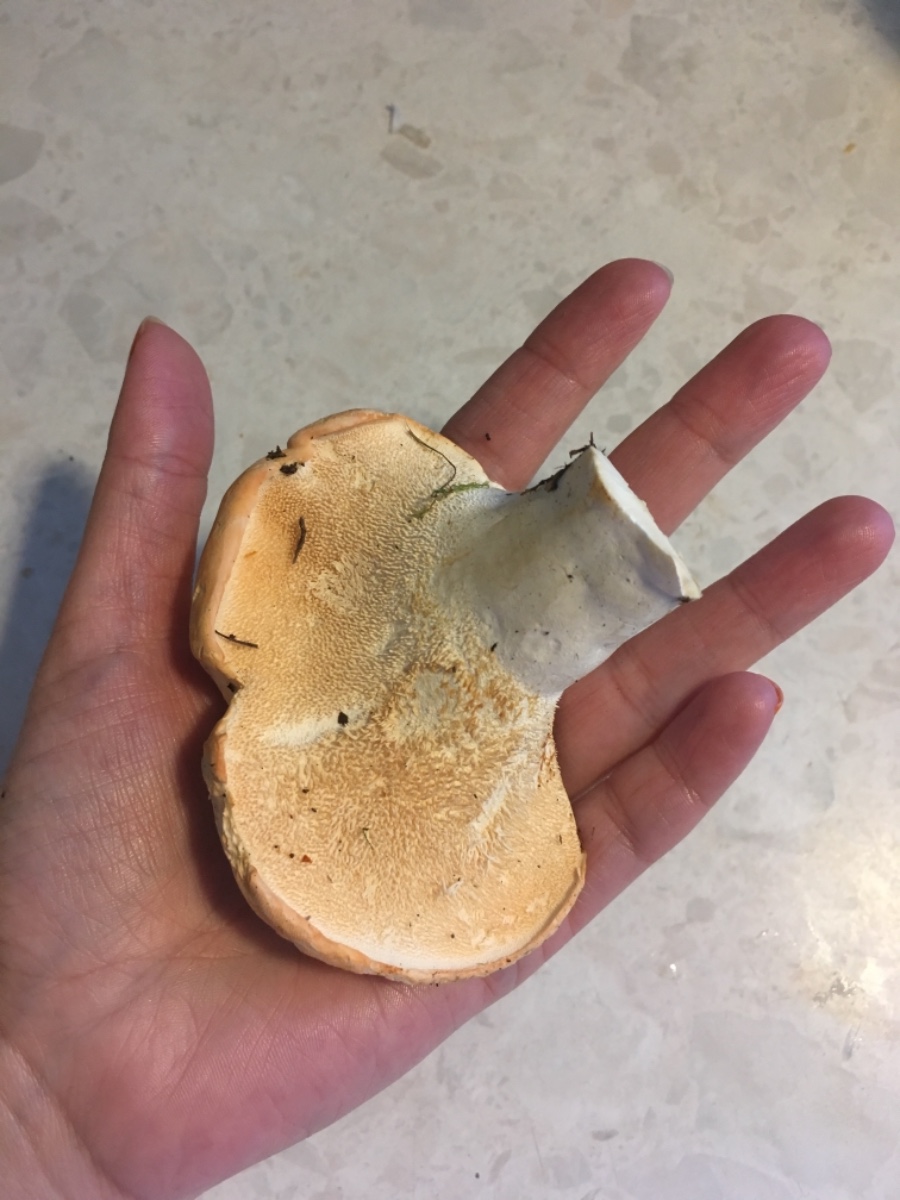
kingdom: Fungi
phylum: Basidiomycota
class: Agaricomycetes
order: Cantharellales
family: Hydnaceae
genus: Hydnum
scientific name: Hydnum repandum
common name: almindelig pigsvamp
